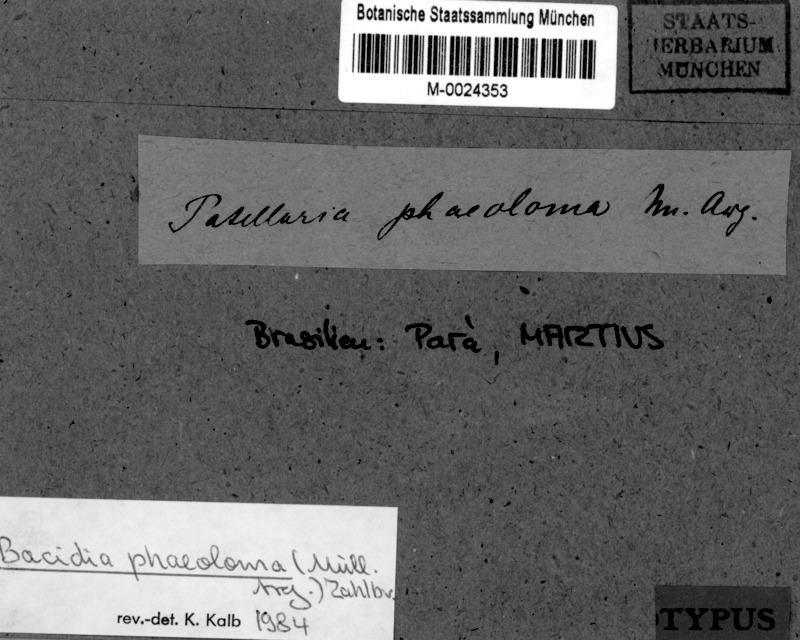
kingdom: Fungi
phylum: Ascomycota
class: Lecanoromycetes
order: Lecanorales
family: Ramalinaceae
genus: Bacidia
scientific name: Bacidia russeola
